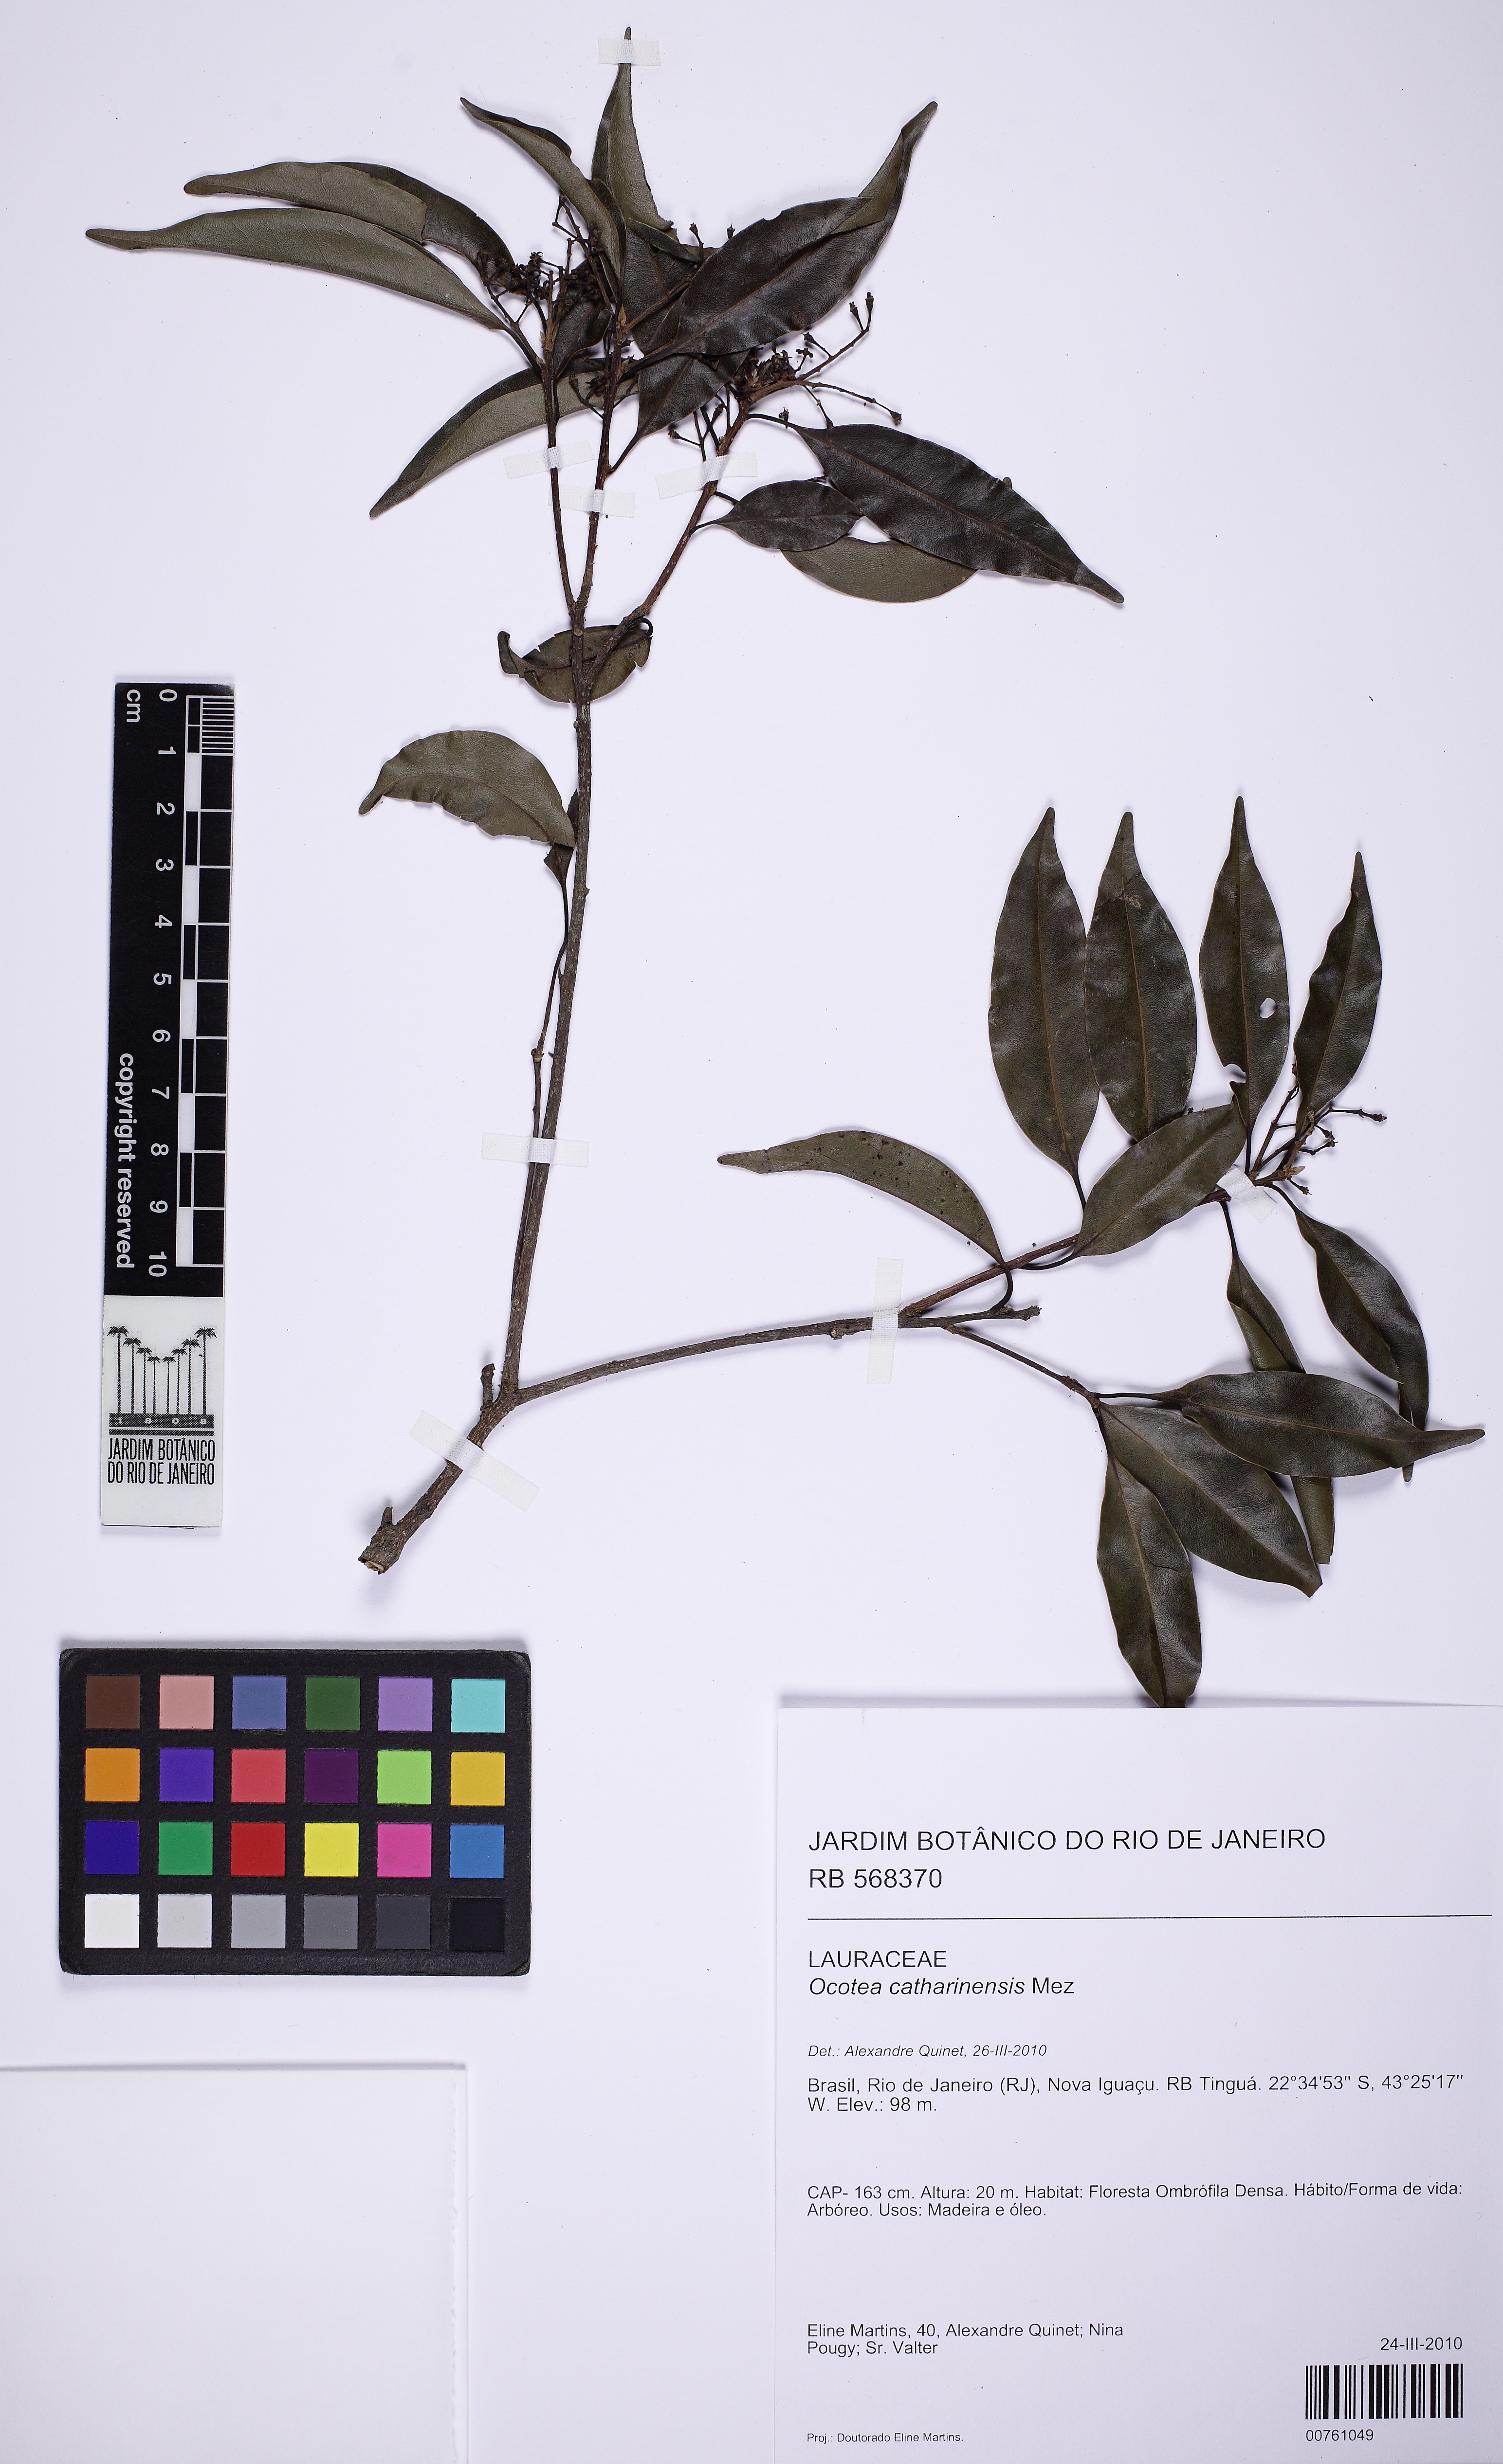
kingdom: Plantae
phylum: Tracheophyta
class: Magnoliopsida
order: Laurales
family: Lauraceae
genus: Ocotea
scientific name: Ocotea catharinensis
